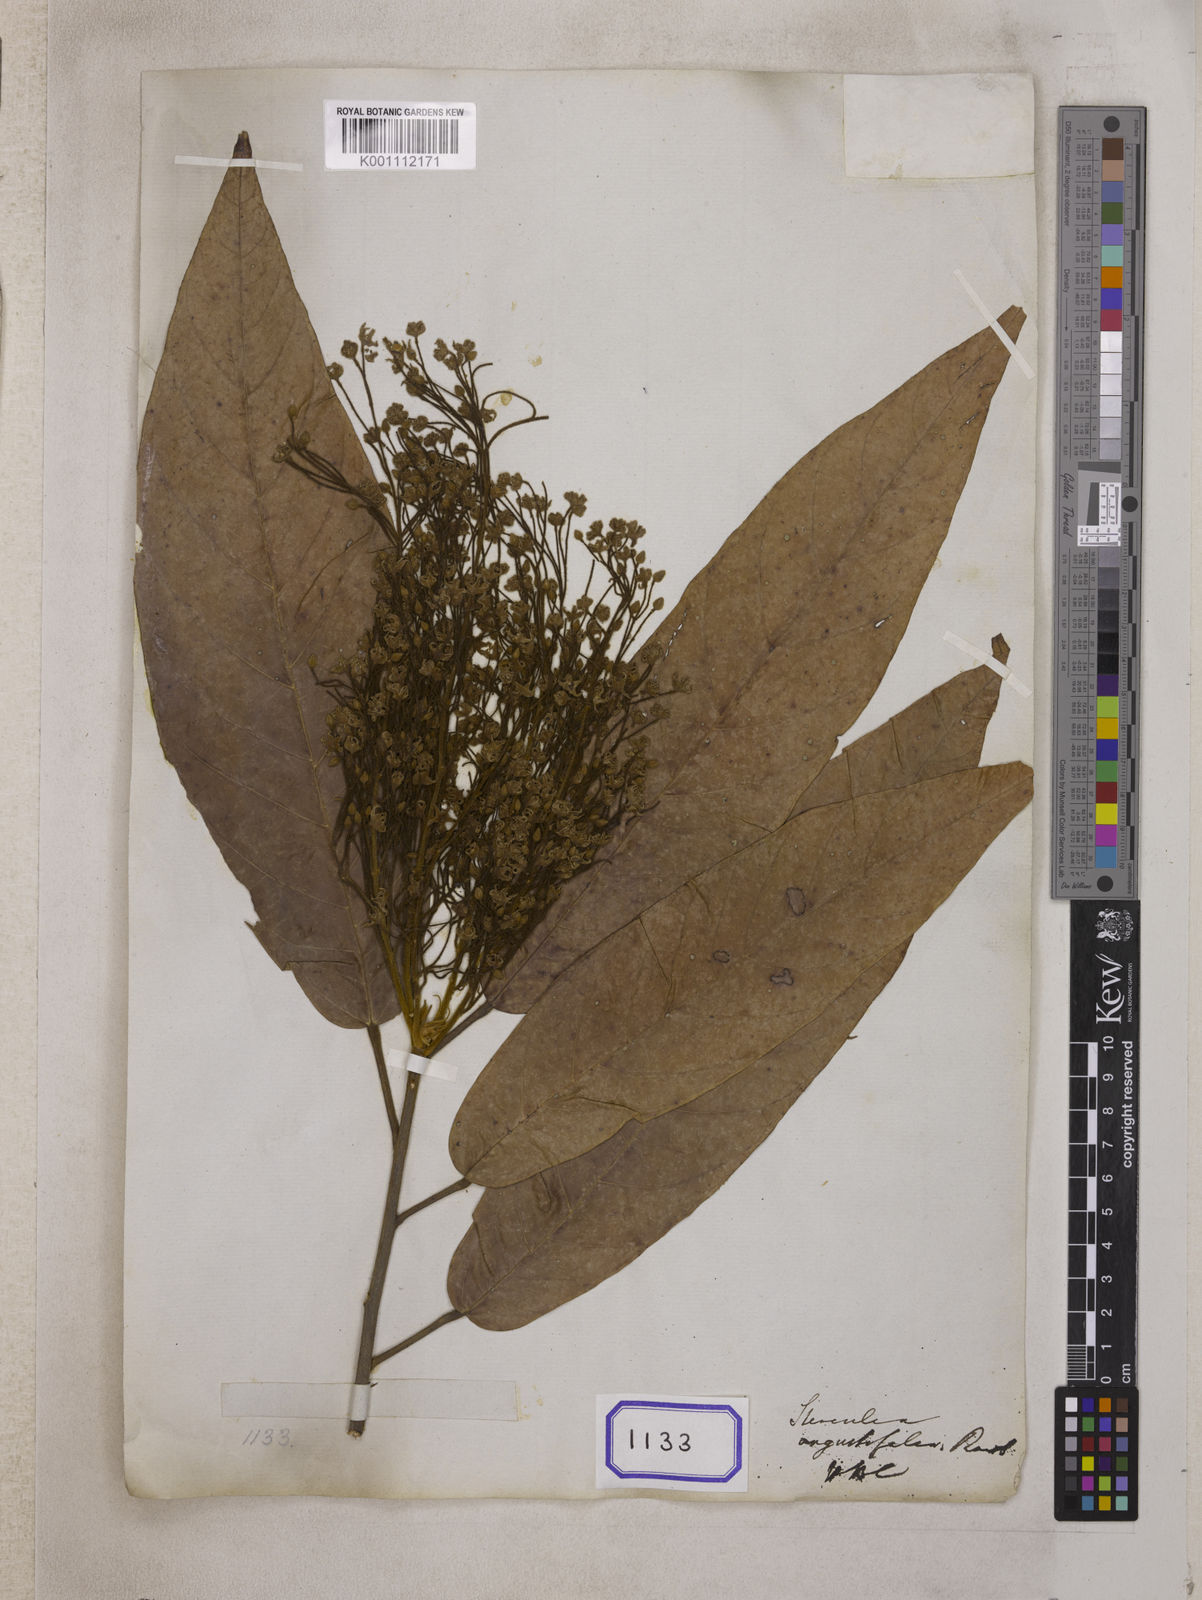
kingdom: Plantae
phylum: Tracheophyta
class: Magnoliopsida
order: Malvales
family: Malvaceae
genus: Sterculia
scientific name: Sterculia
